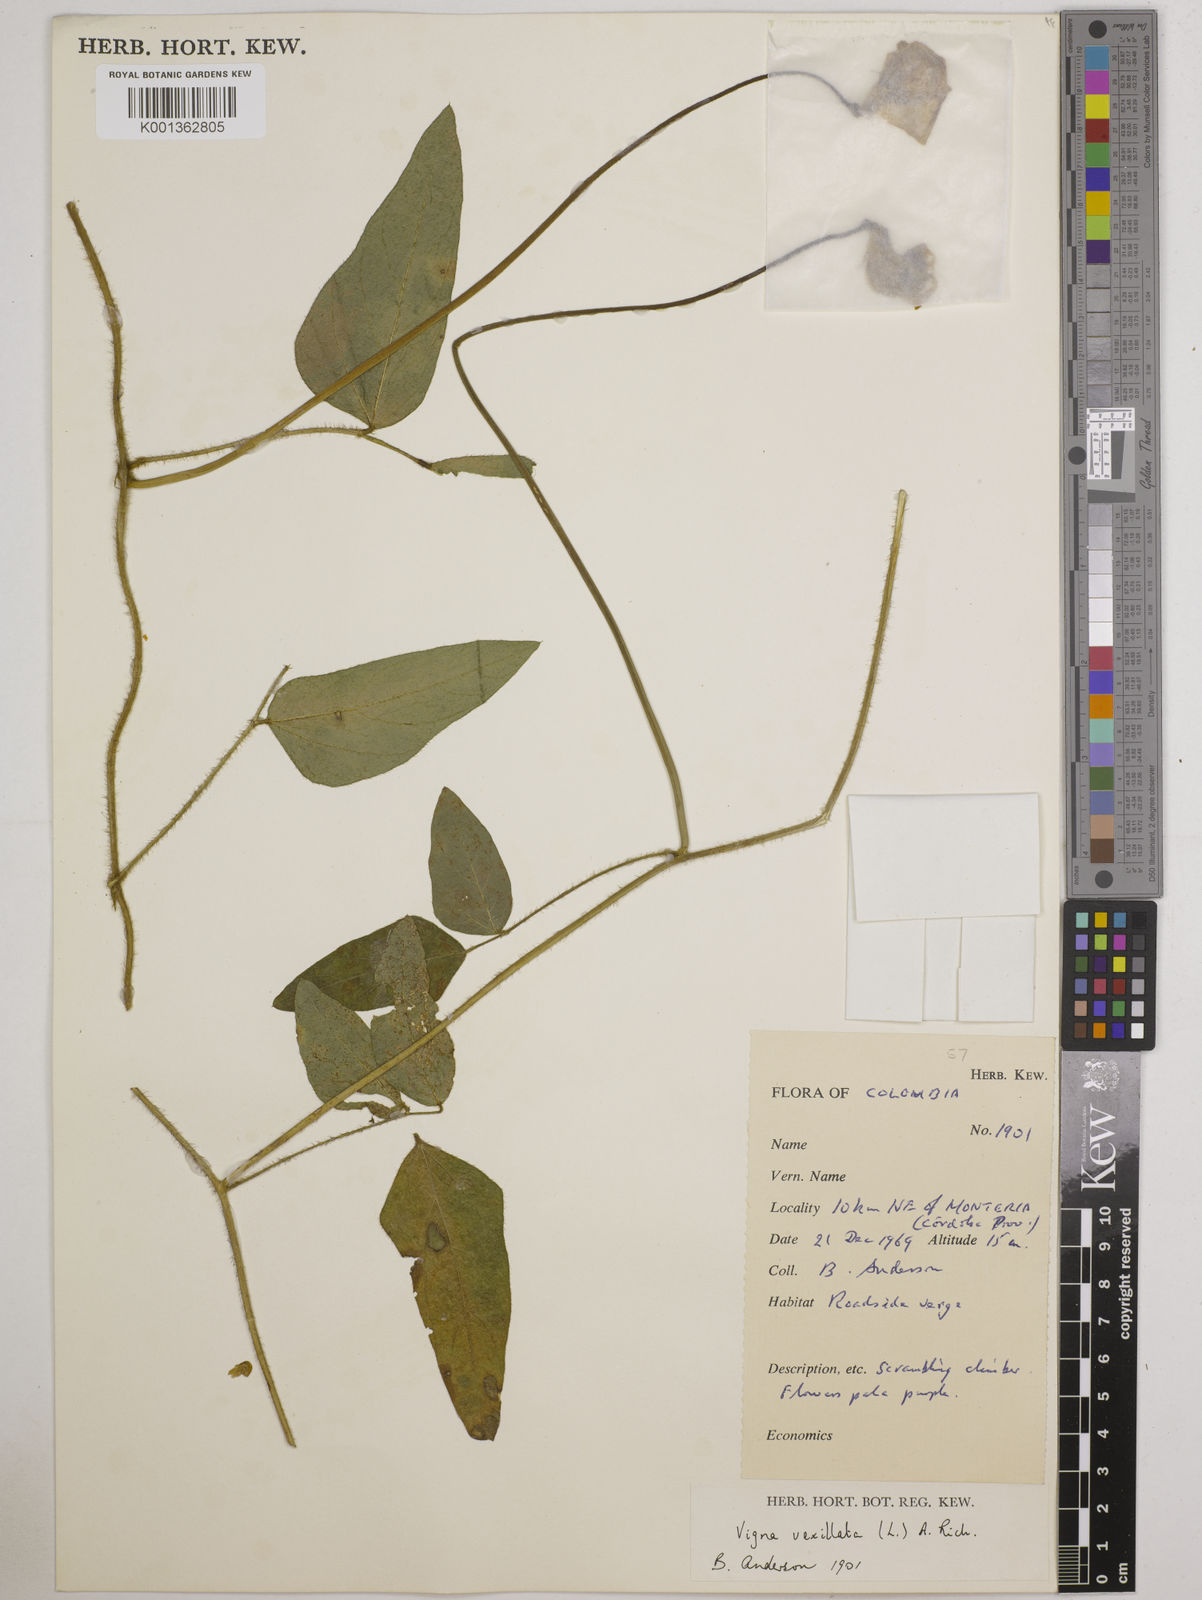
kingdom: Plantae
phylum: Tracheophyta
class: Magnoliopsida
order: Fabales
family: Fabaceae
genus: Vigna
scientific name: Vigna vexillata
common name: Zombi pea
